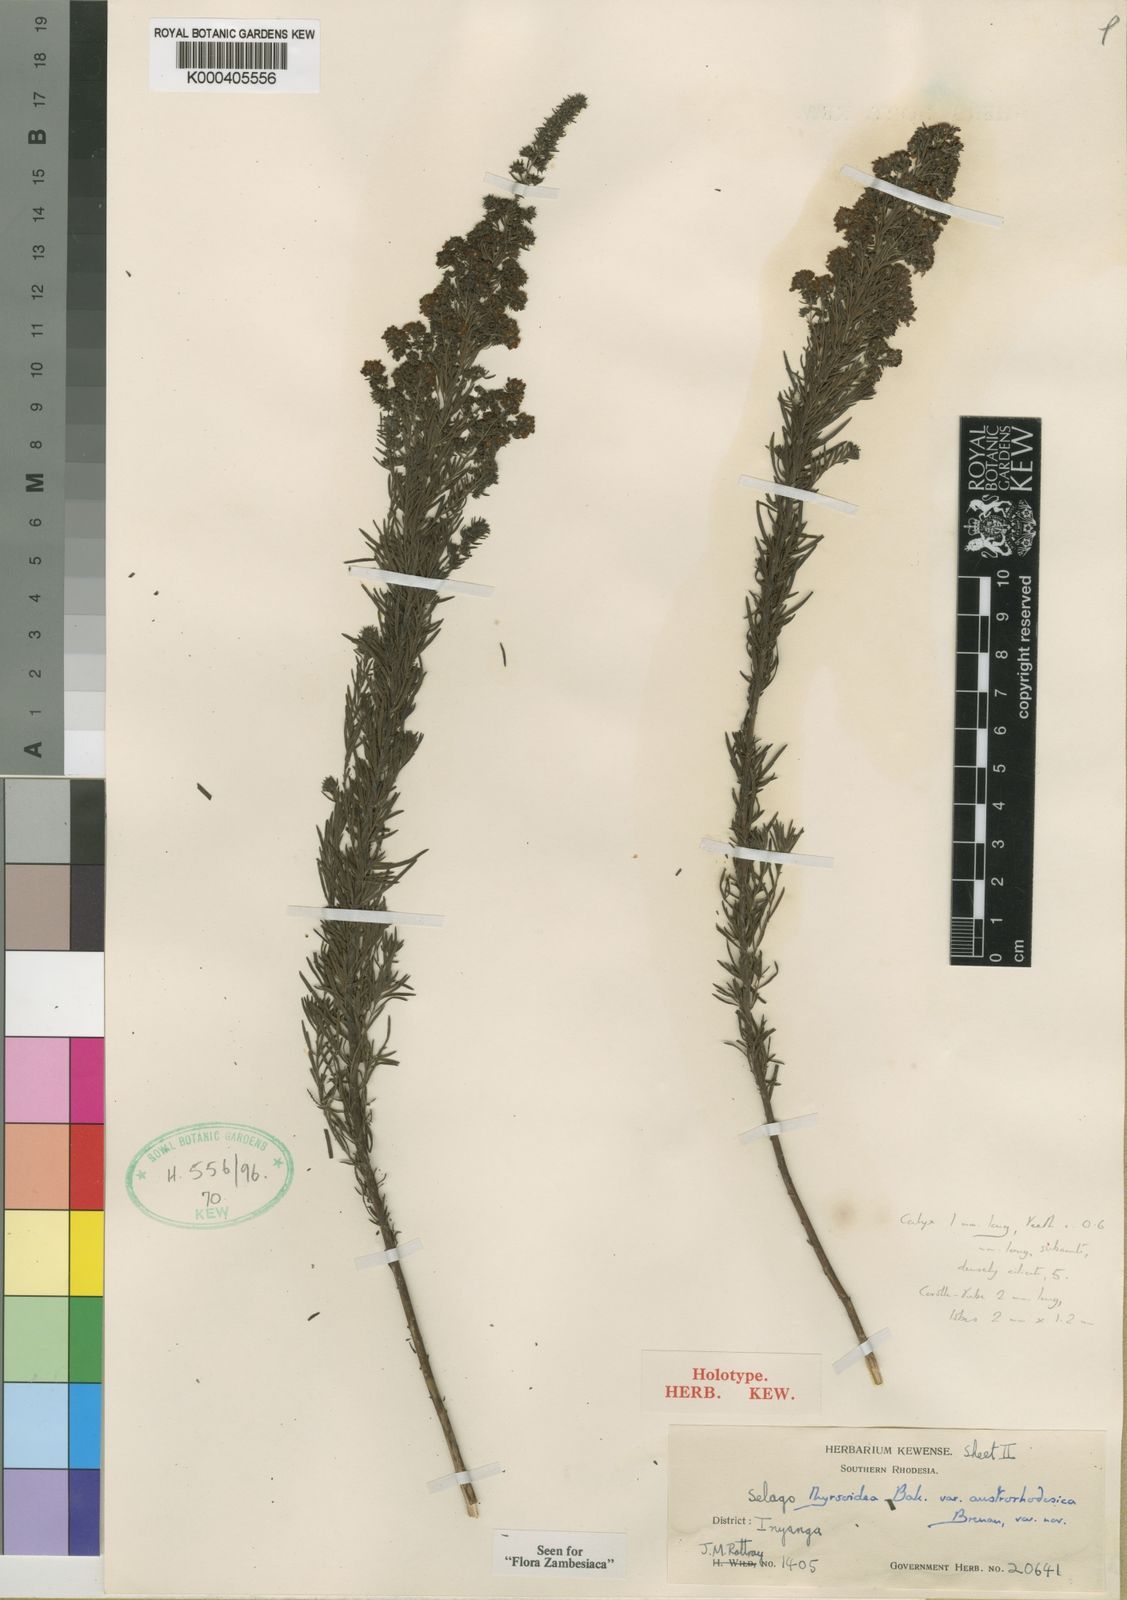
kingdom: Plantae
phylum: Tracheophyta
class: Magnoliopsida
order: Lamiales
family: Scrophulariaceae
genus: Selago
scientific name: Selago thyrsoidea
